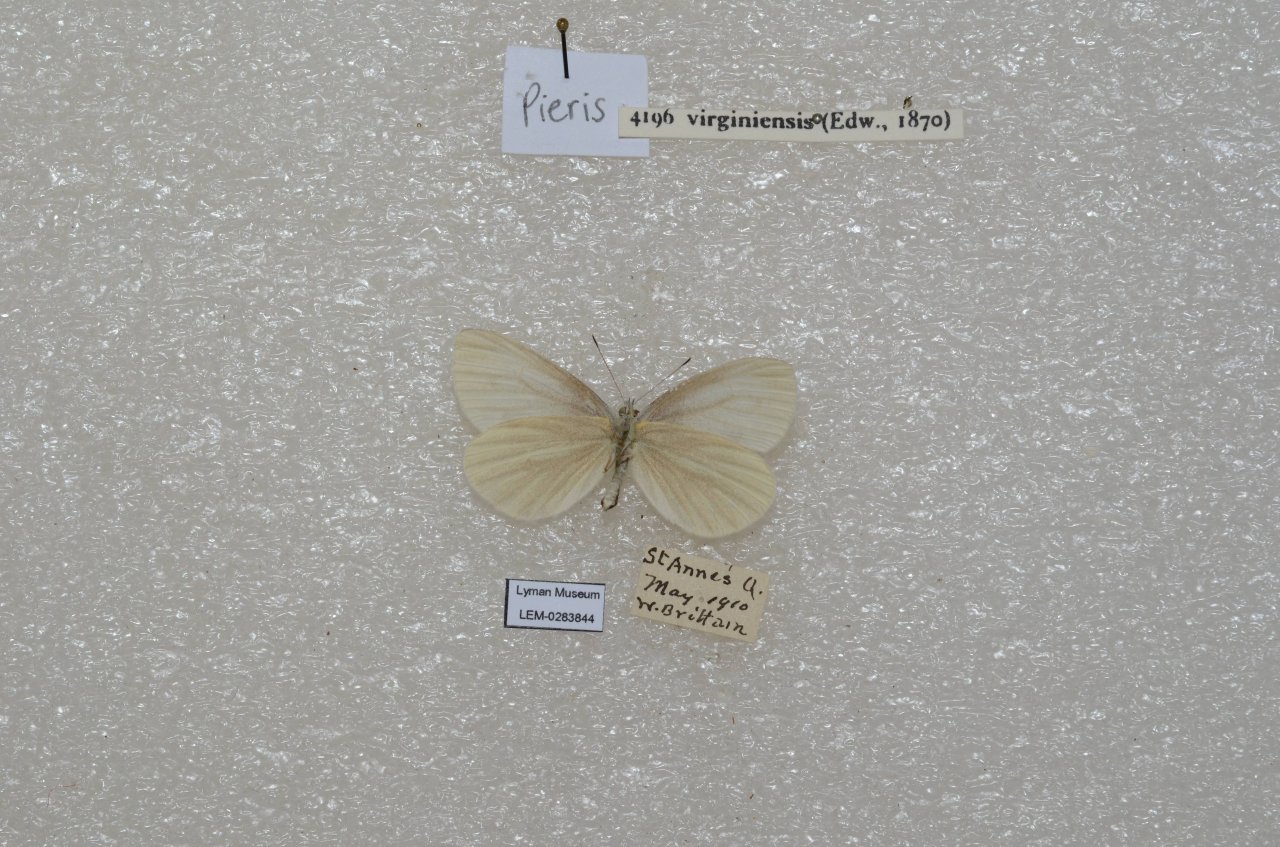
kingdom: Animalia
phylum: Arthropoda
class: Insecta
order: Lepidoptera
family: Pieridae
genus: Pieris
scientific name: Pieris virginiensis
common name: West Virginia White
